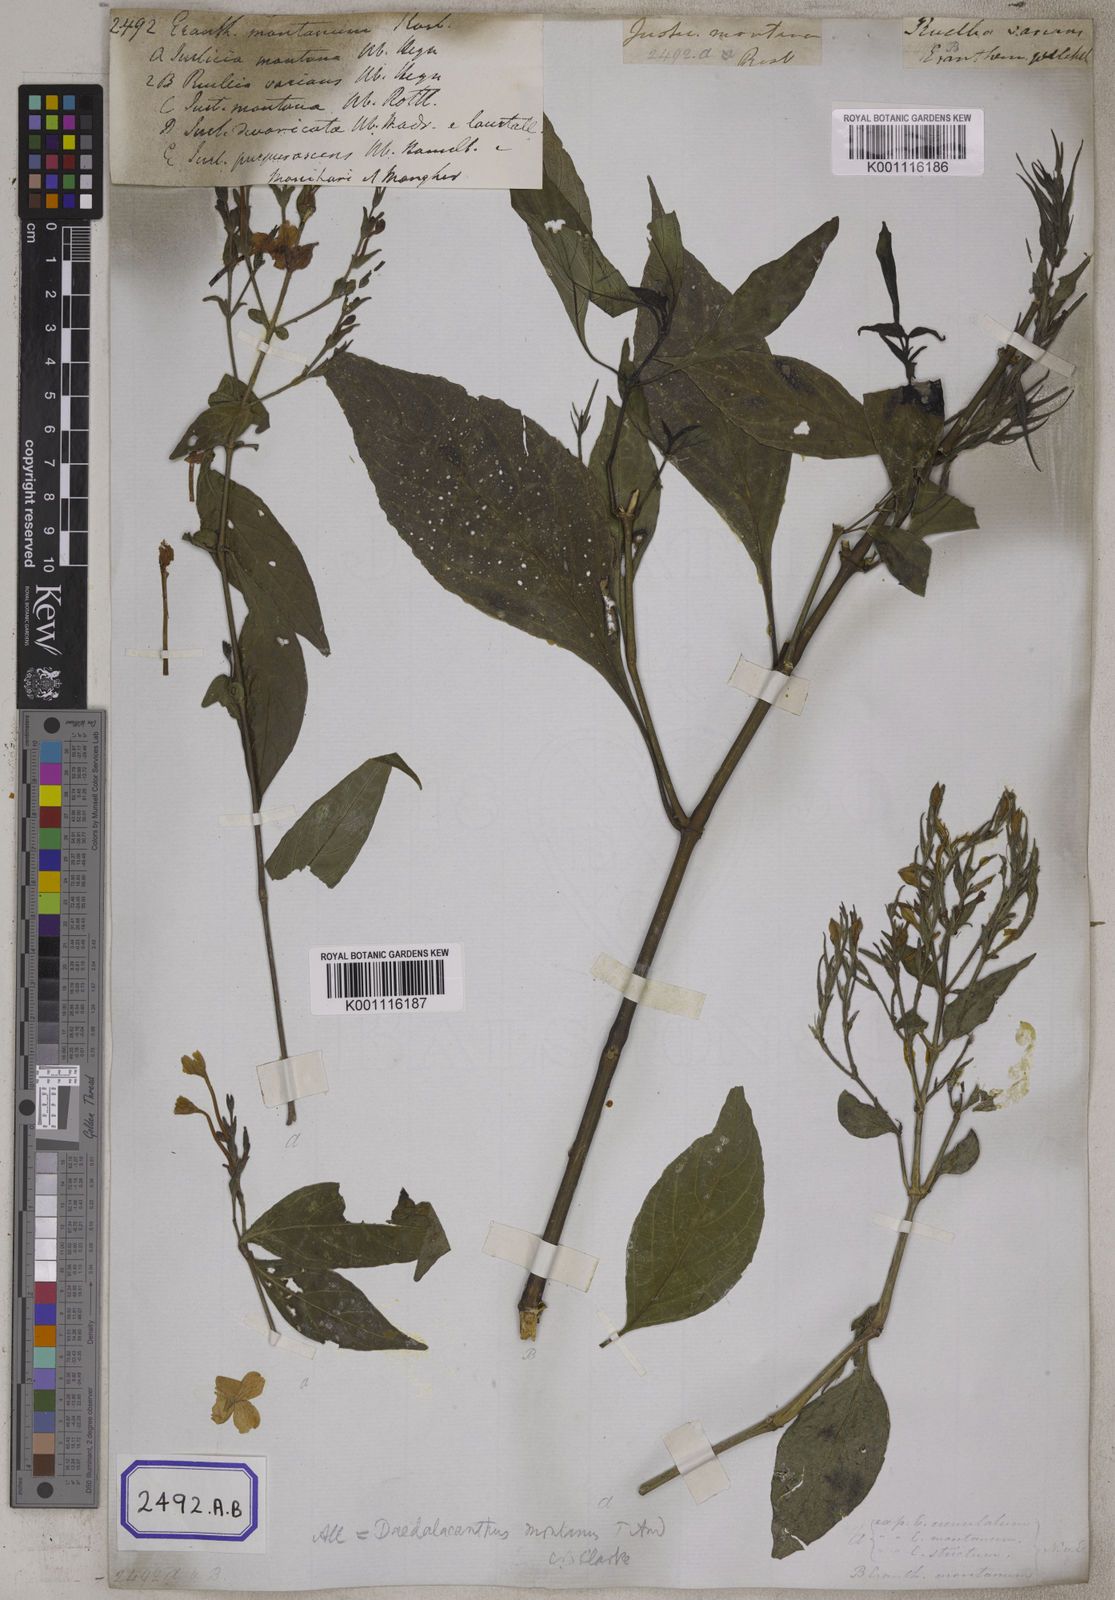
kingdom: Plantae
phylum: Tracheophyta
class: Magnoliopsida
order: Lamiales
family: Acanthaceae
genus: Eranthemum
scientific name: Eranthemum
